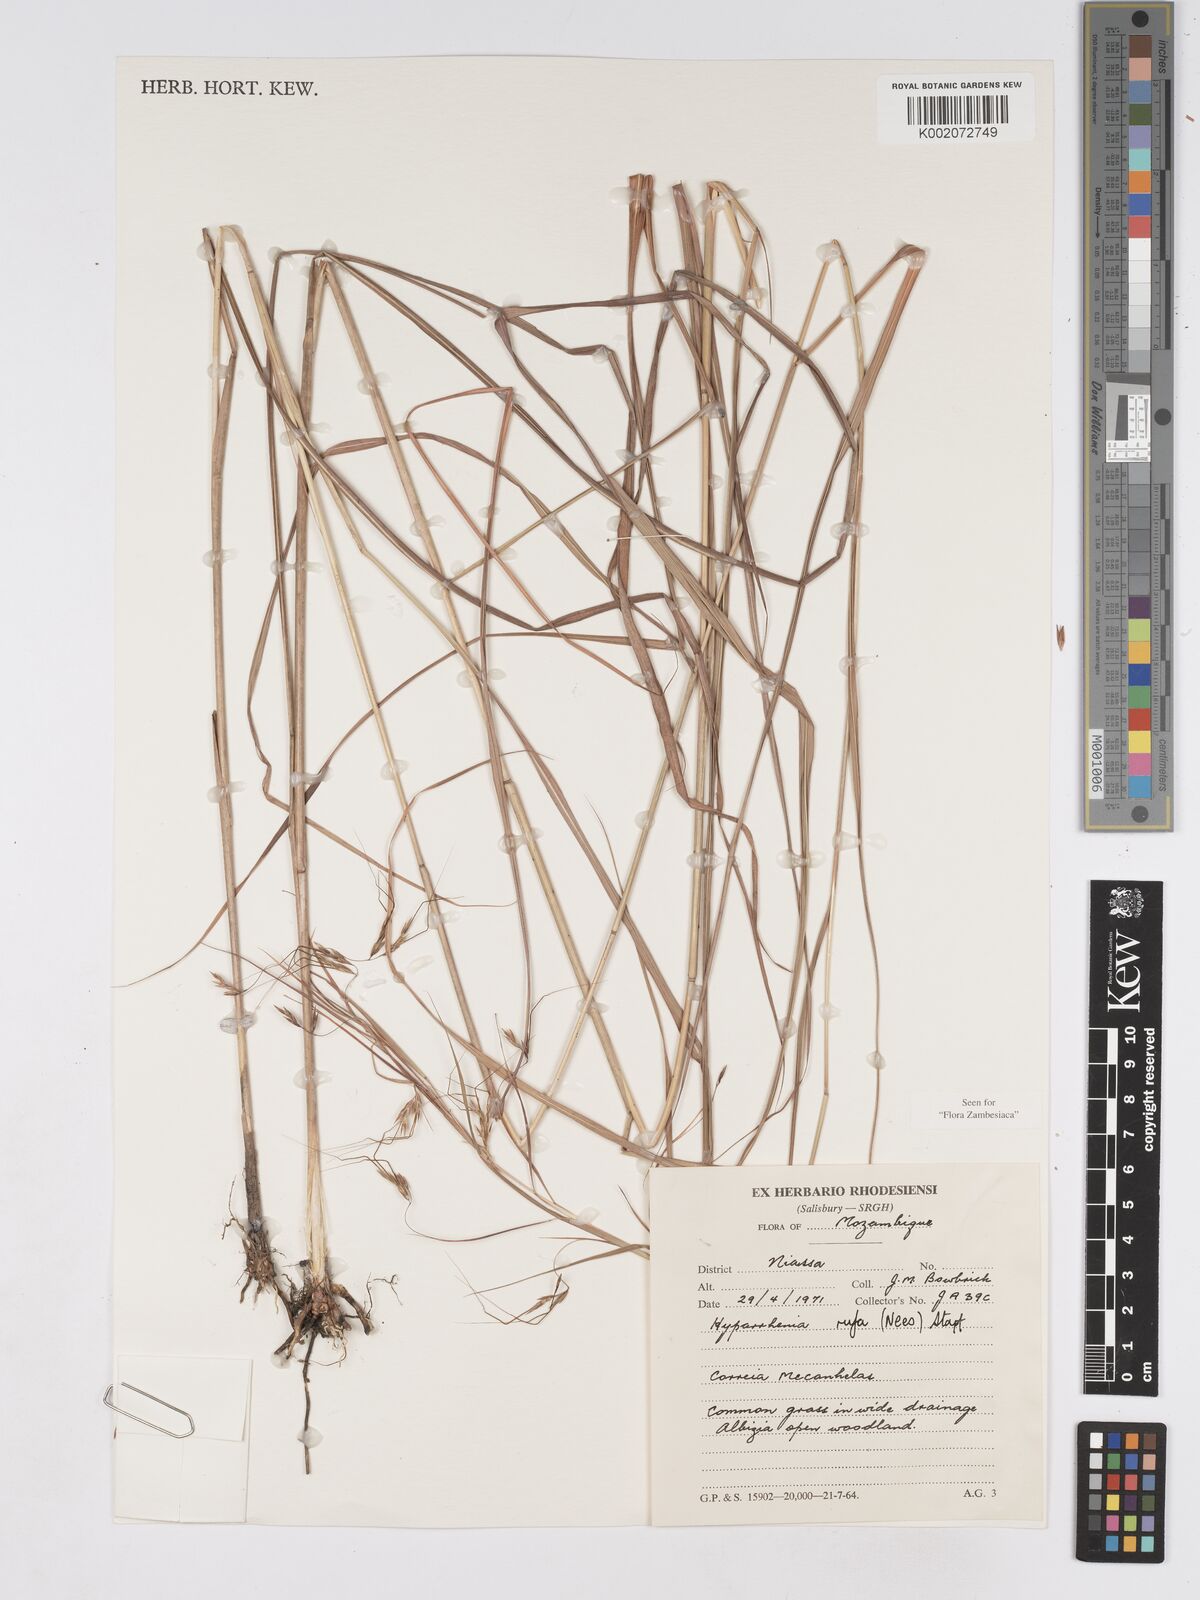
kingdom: Plantae
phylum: Tracheophyta
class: Liliopsida
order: Poales
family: Poaceae
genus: Hyparrhenia
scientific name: Hyparrhenia rufa
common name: Jaraguagrass
